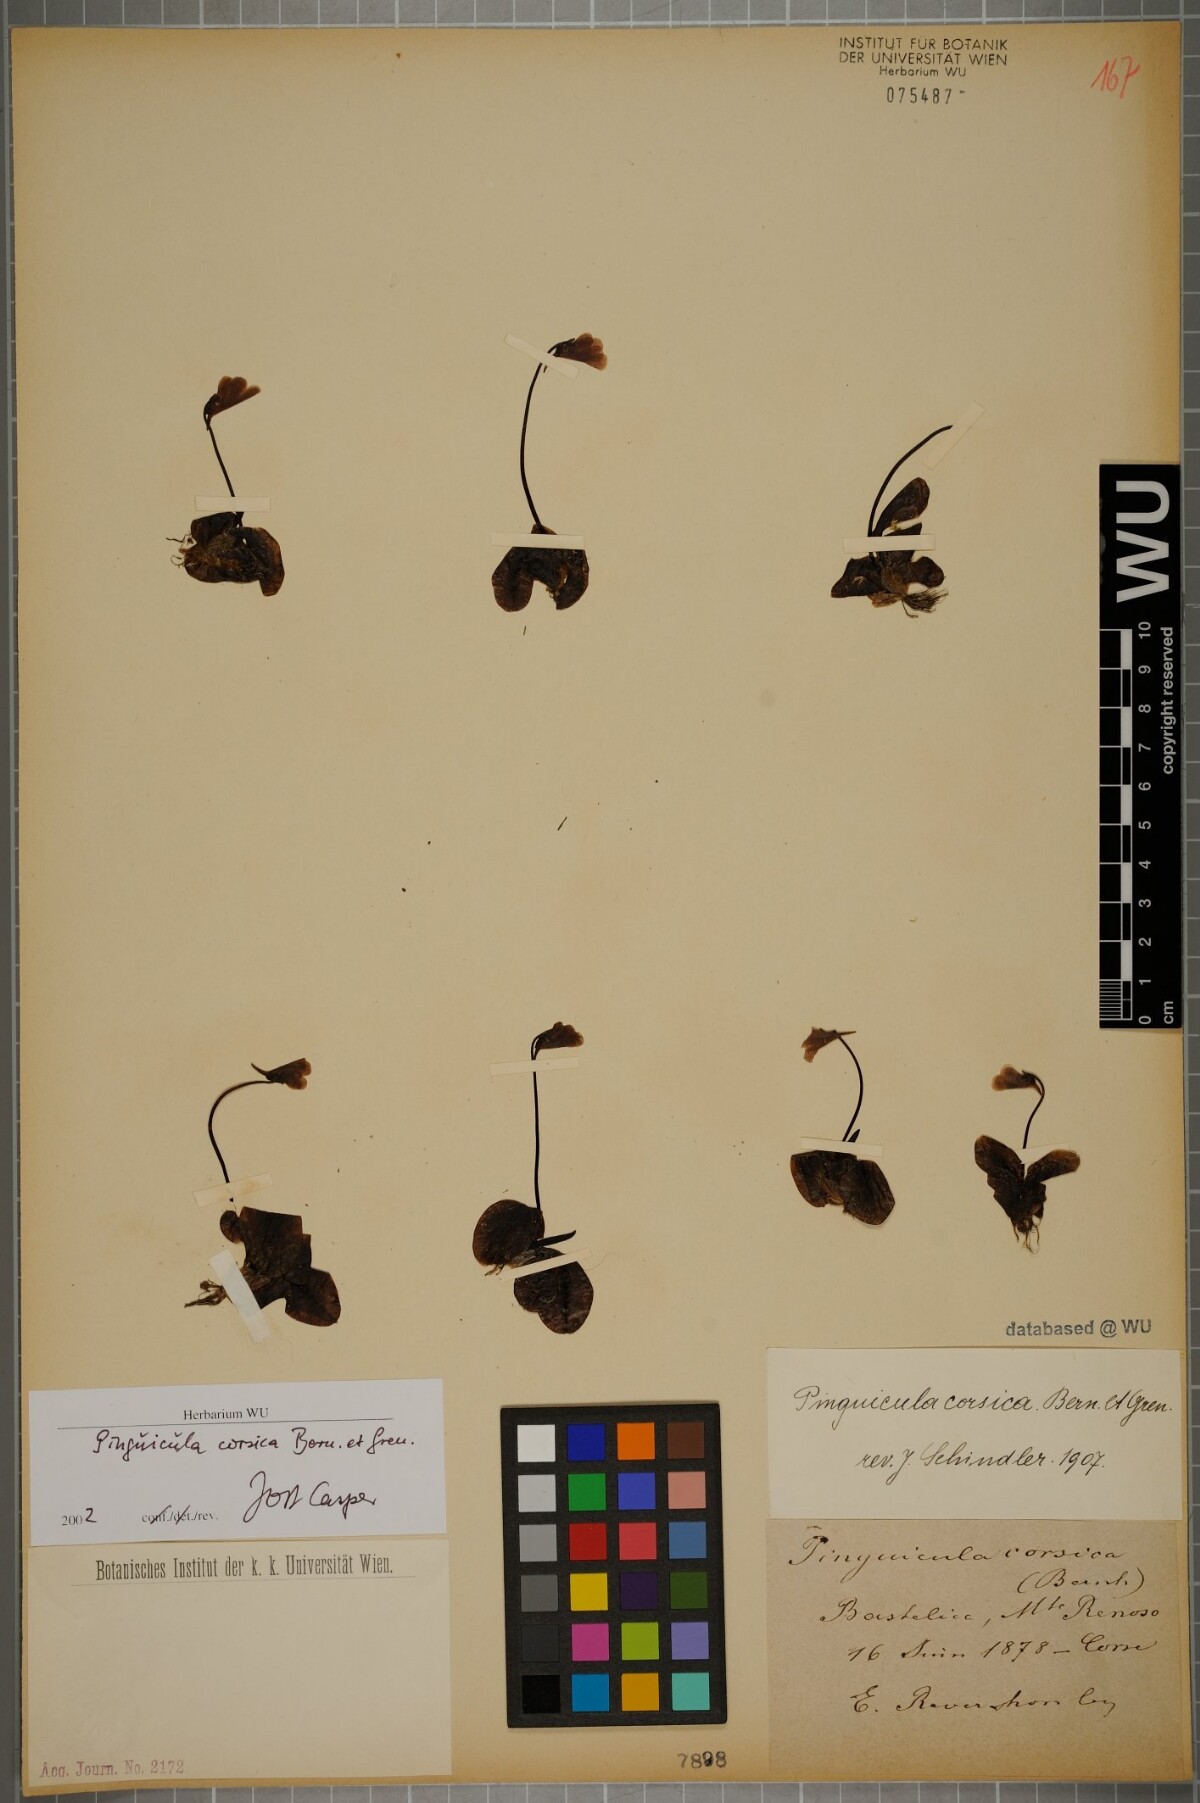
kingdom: Plantae
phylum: Tracheophyta
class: Magnoliopsida
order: Lamiales
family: Lentibulariaceae
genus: Pinguicula
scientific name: Pinguicula corsica
